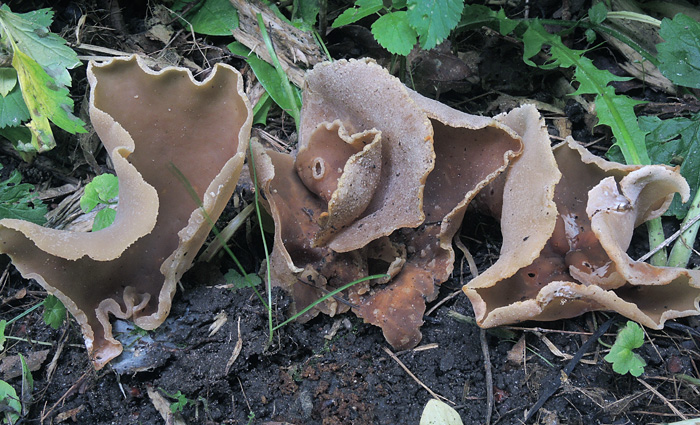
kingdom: Fungi
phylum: Ascomycota
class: Pezizomycetes
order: Pezizales
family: Pezizaceae
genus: Peziza
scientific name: Peziza varia
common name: Ved-bægersvamp
